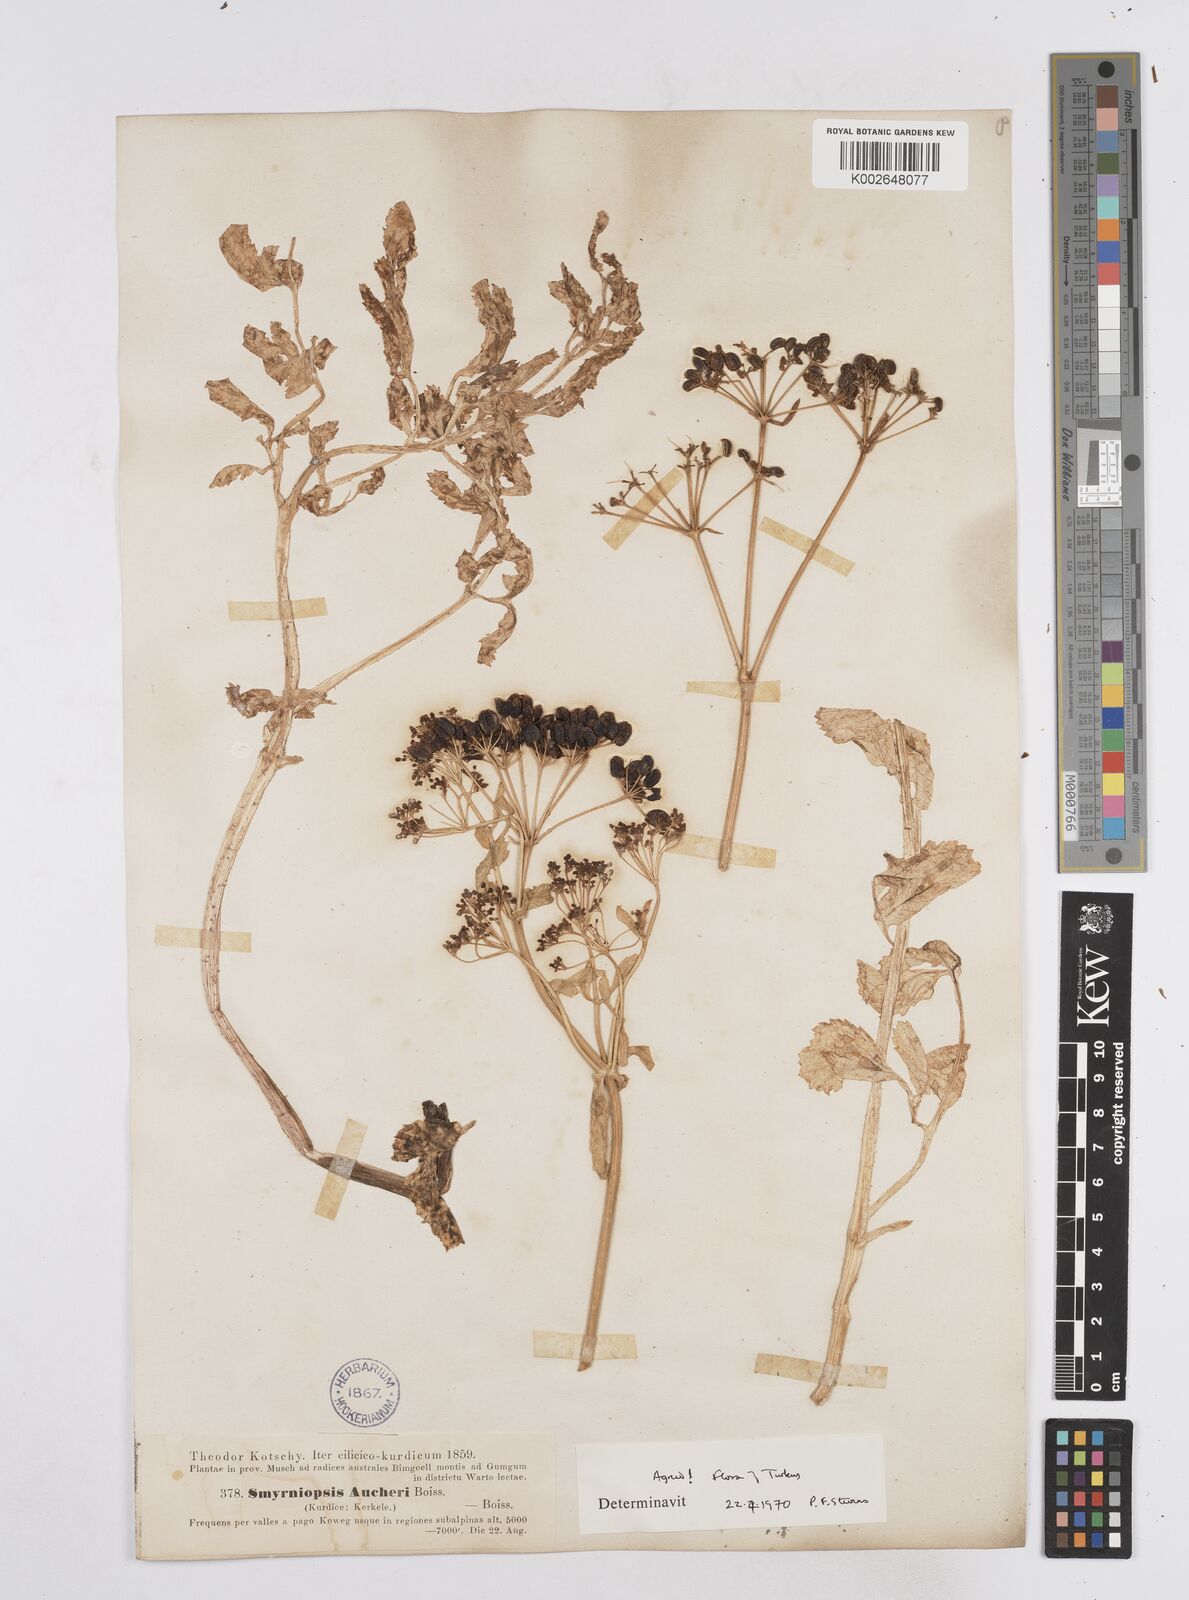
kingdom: Plantae
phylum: Tracheophyta
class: Magnoliopsida
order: Apiales
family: Apiaceae
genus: Smyrniopsis
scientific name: Smyrniopsis aucheri
